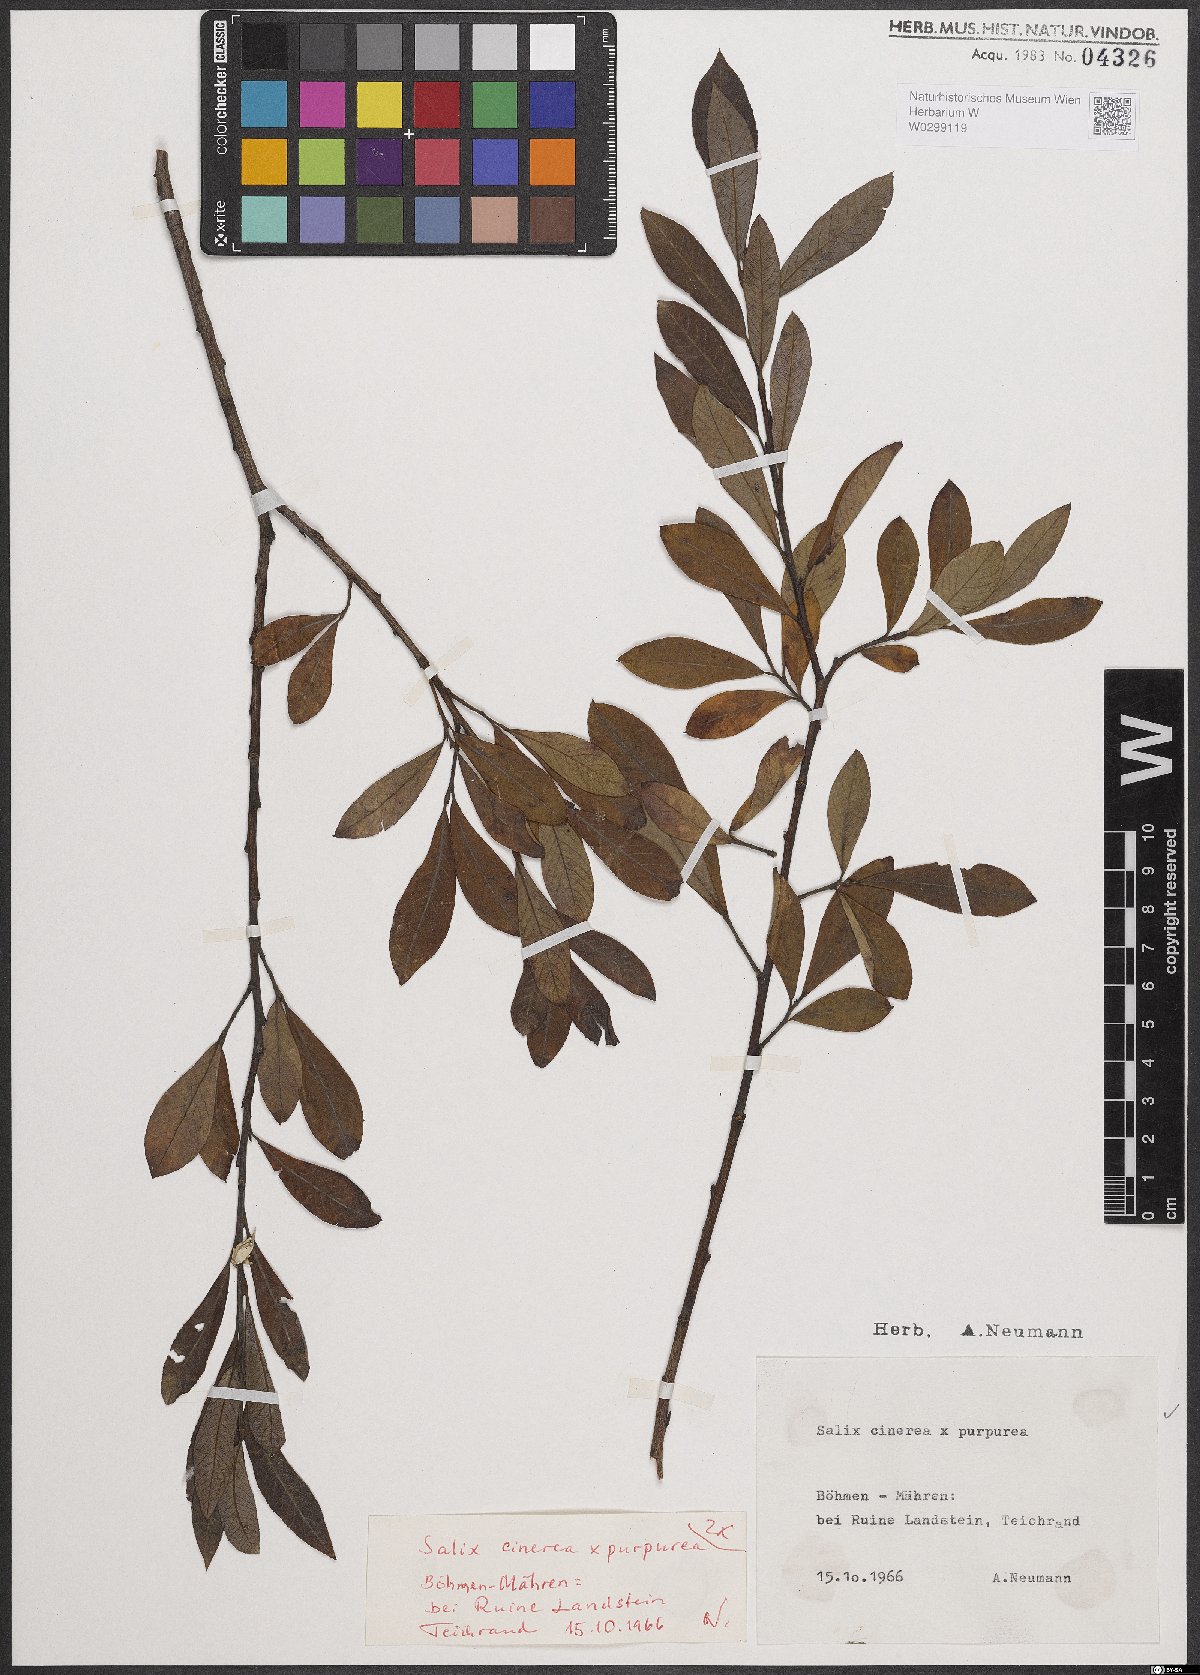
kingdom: Plantae
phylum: Tracheophyta
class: Magnoliopsida
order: Malpighiales
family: Salicaceae
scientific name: Salicaceae
